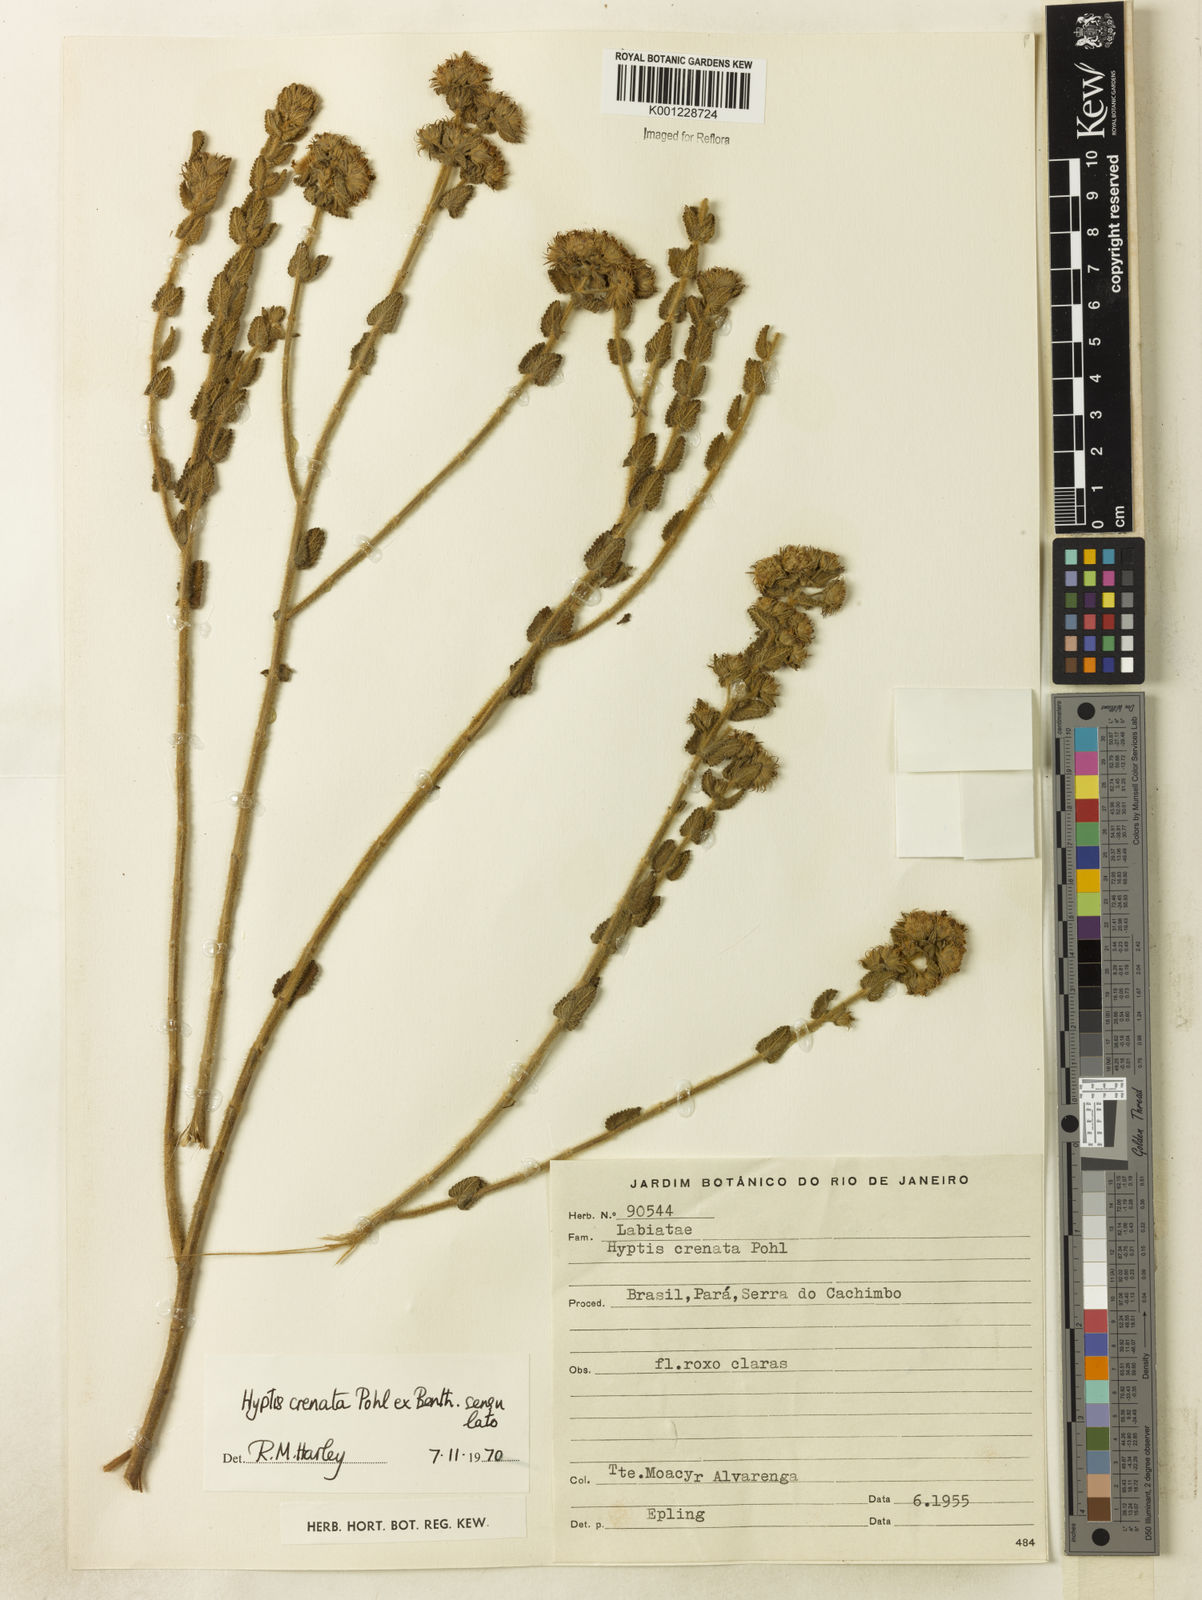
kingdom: Plantae
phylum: Tracheophyta
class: Magnoliopsida
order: Lamiales
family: Lamiaceae
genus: Hyptis
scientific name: Hyptis crenata
